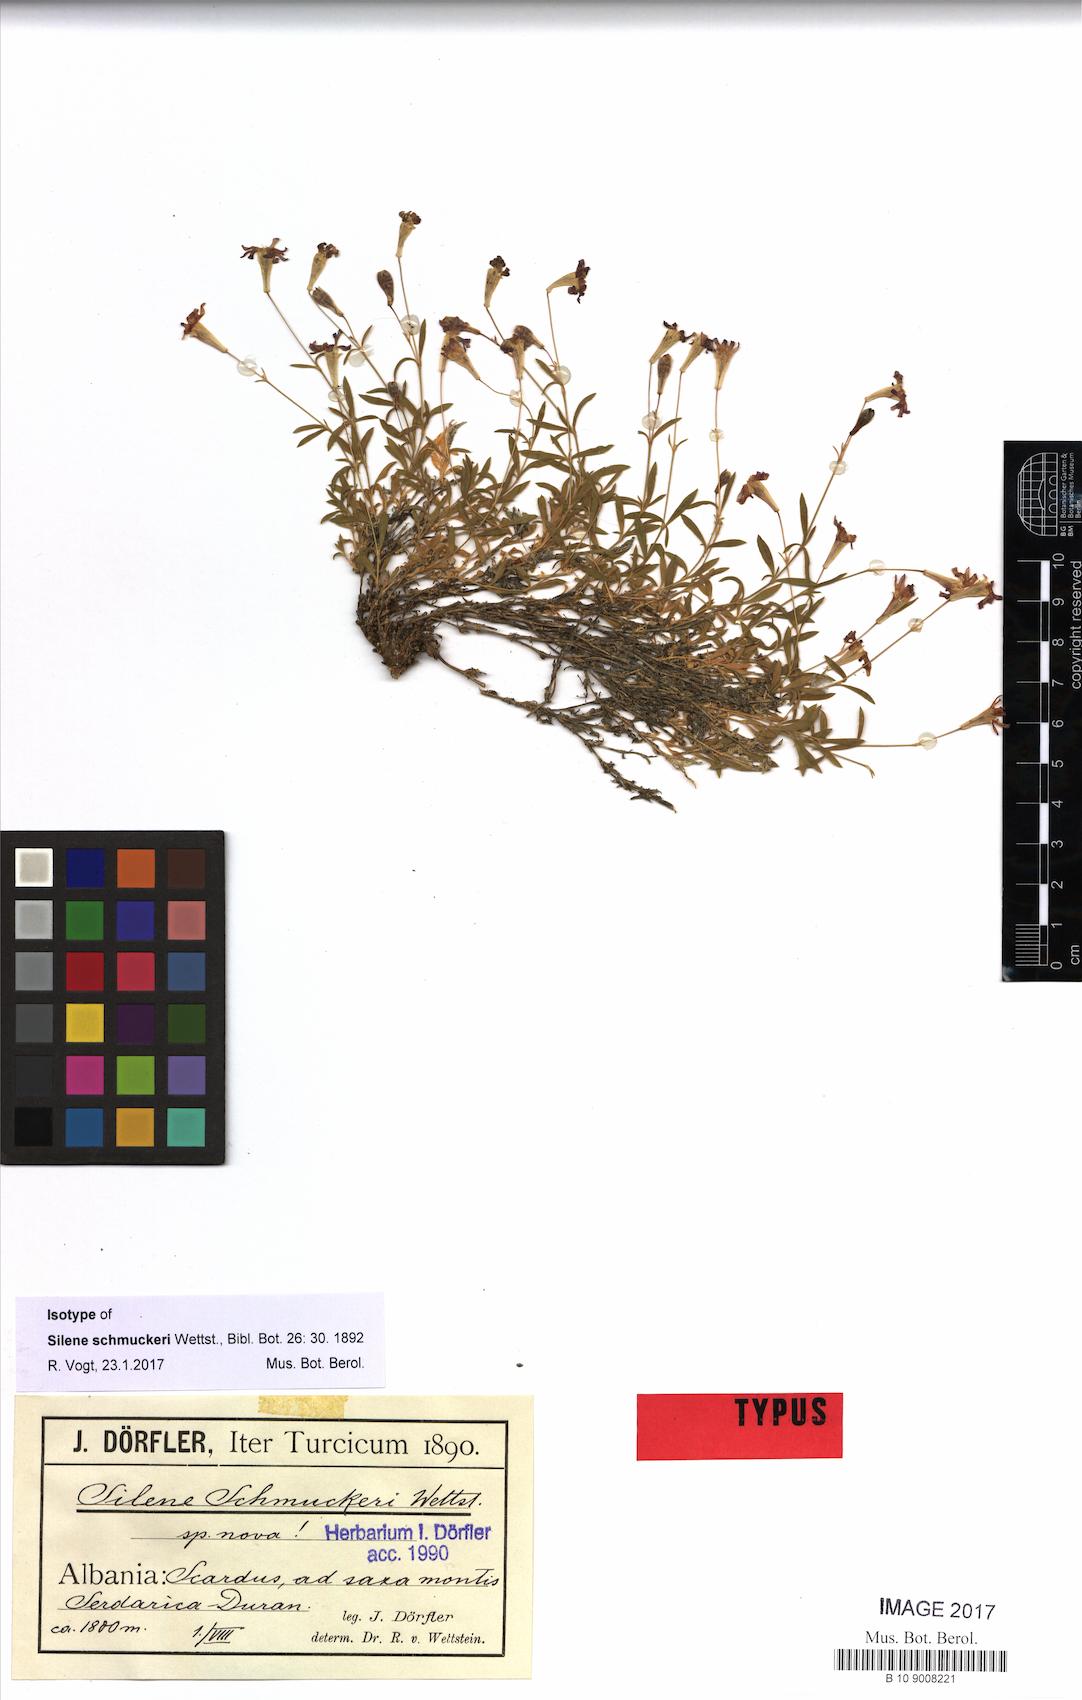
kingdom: Plantae
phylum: Tracheophyta
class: Magnoliopsida
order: Caryophyllales
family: Caryophyllaceae
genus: Silene
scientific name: Silene schmuckeri
